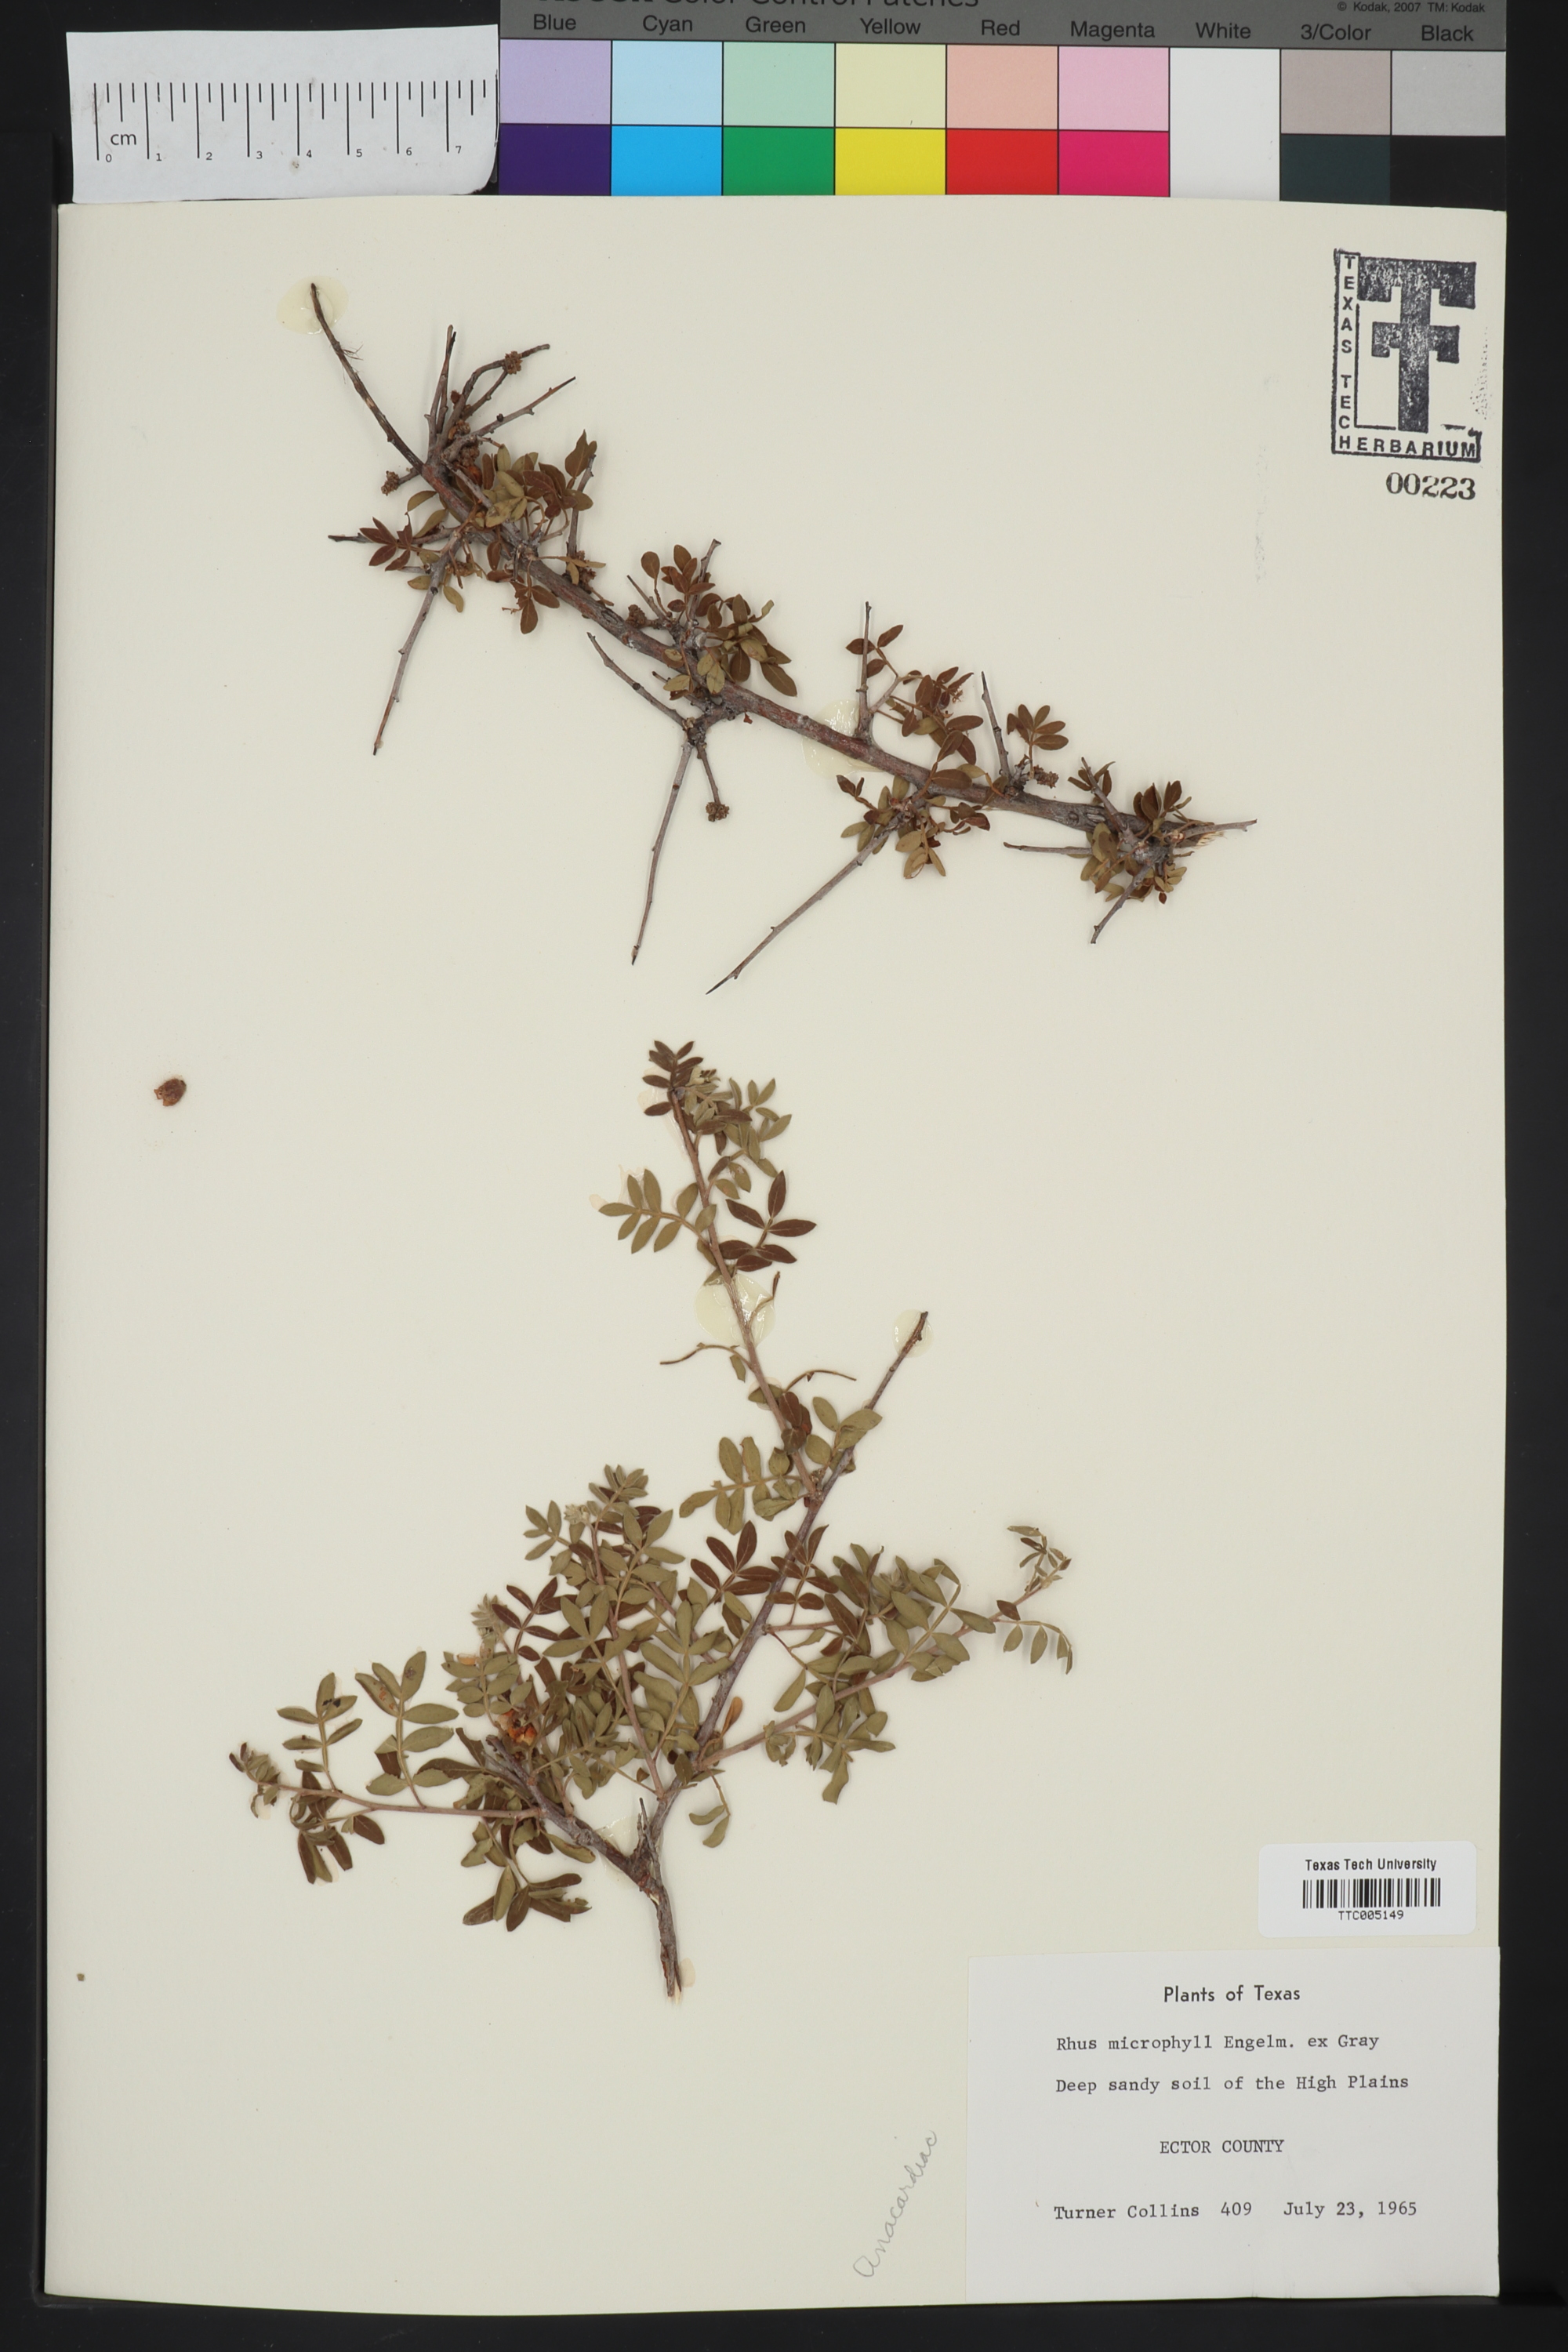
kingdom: Plantae
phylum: Tracheophyta
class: Magnoliopsida
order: Sapindales
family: Anacardiaceae
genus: Rhus
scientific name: Rhus microphylla
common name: Desert sumac
